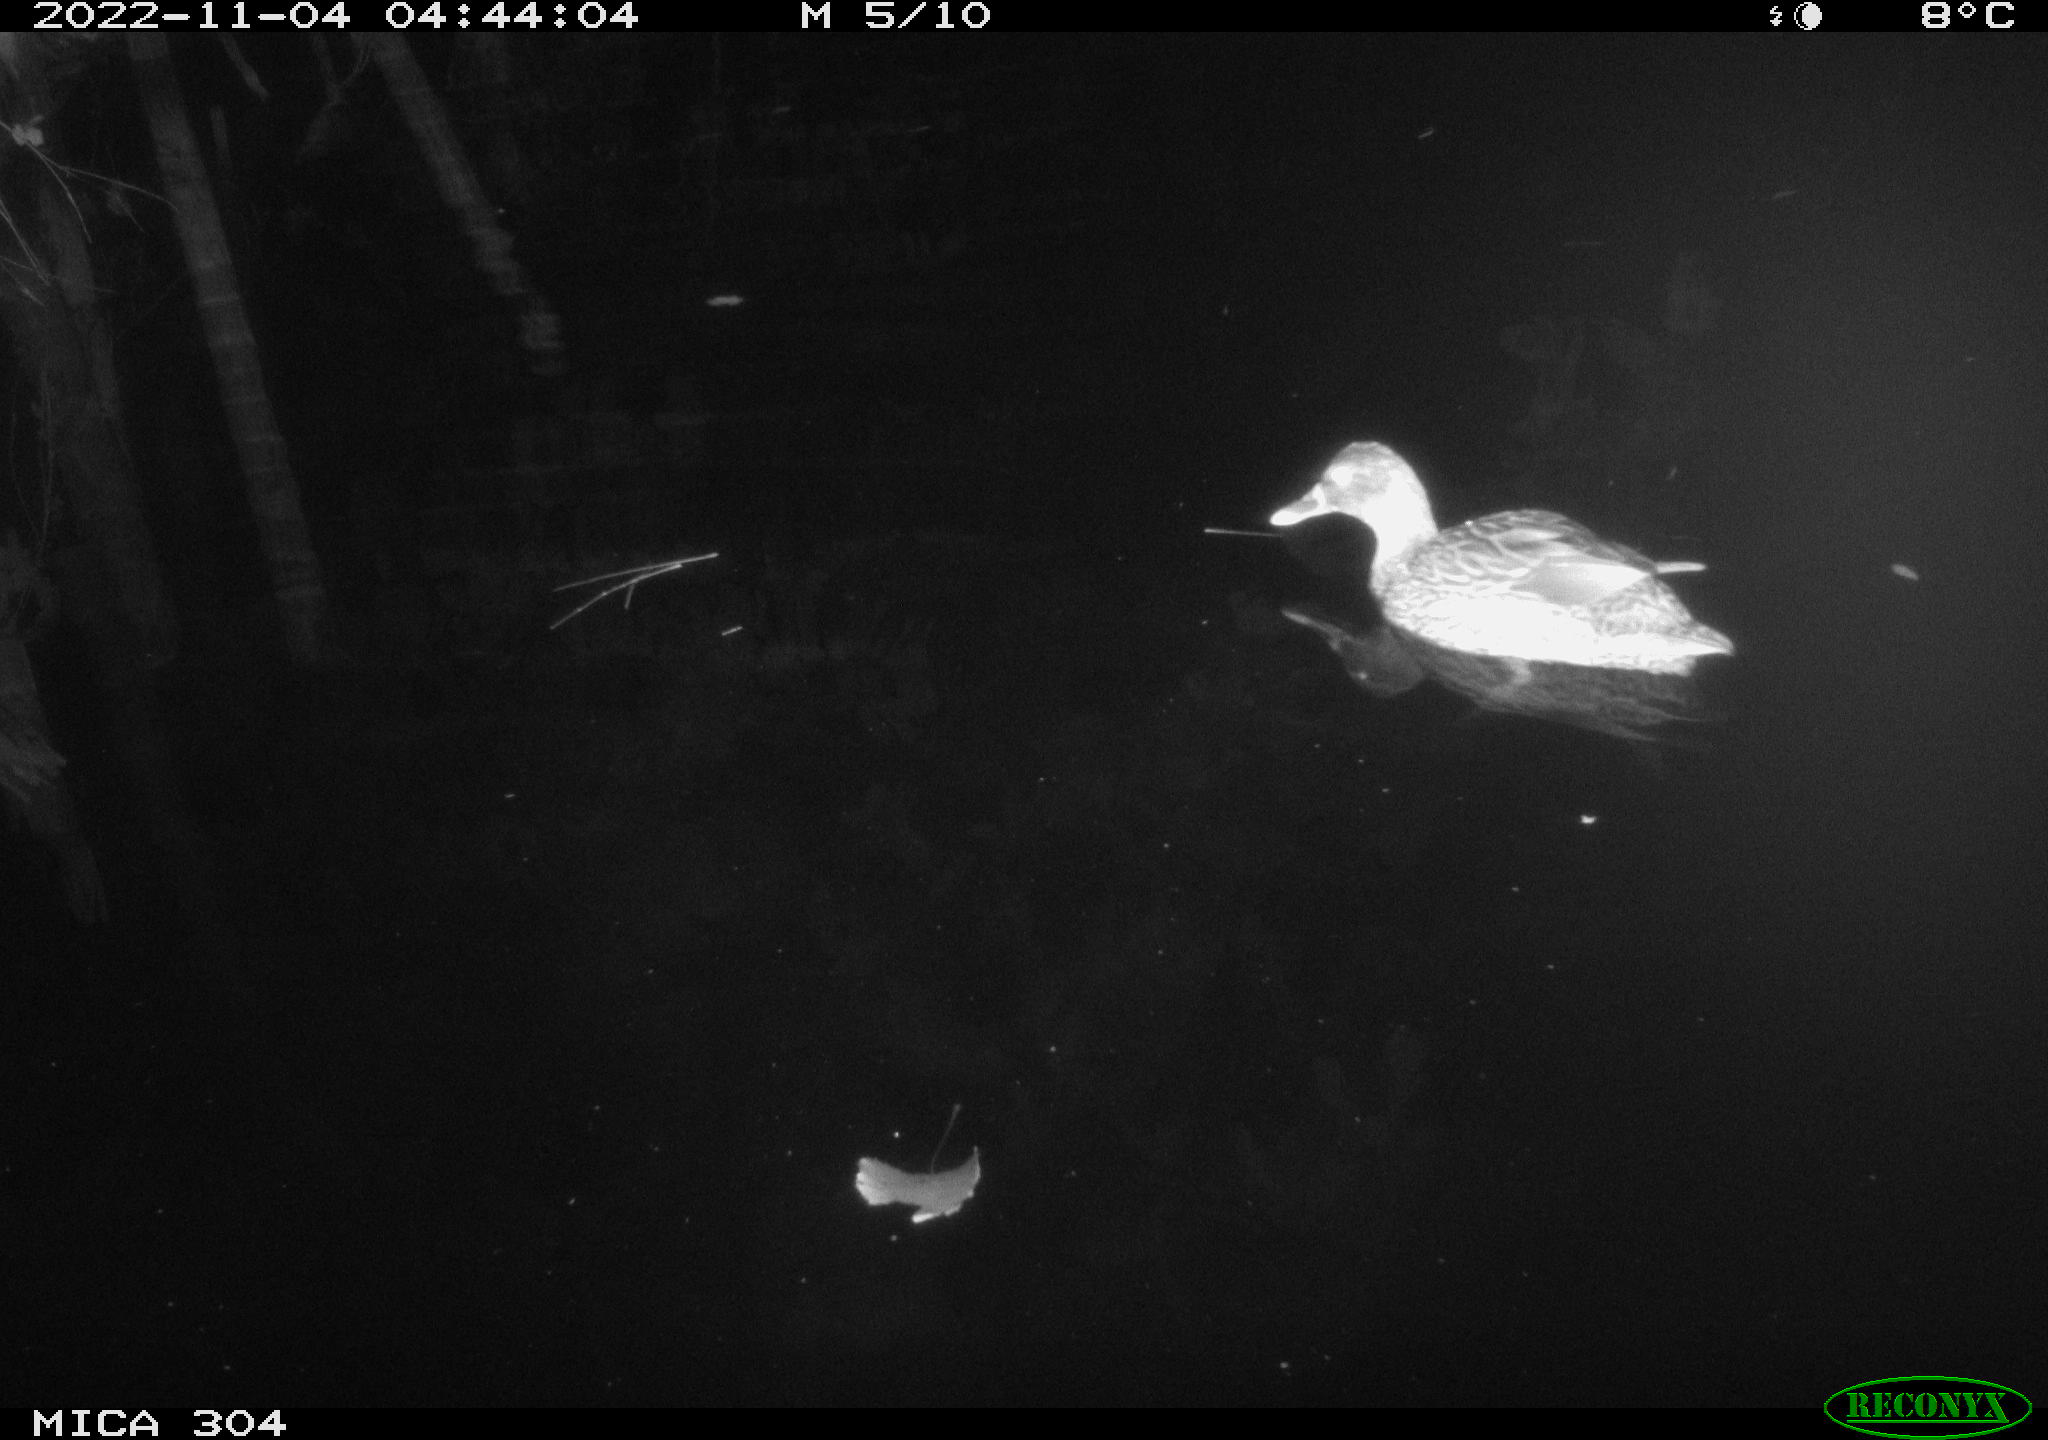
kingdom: Animalia
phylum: Chordata
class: Aves
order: Anseriformes
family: Anatidae
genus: Anas
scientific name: Anas
